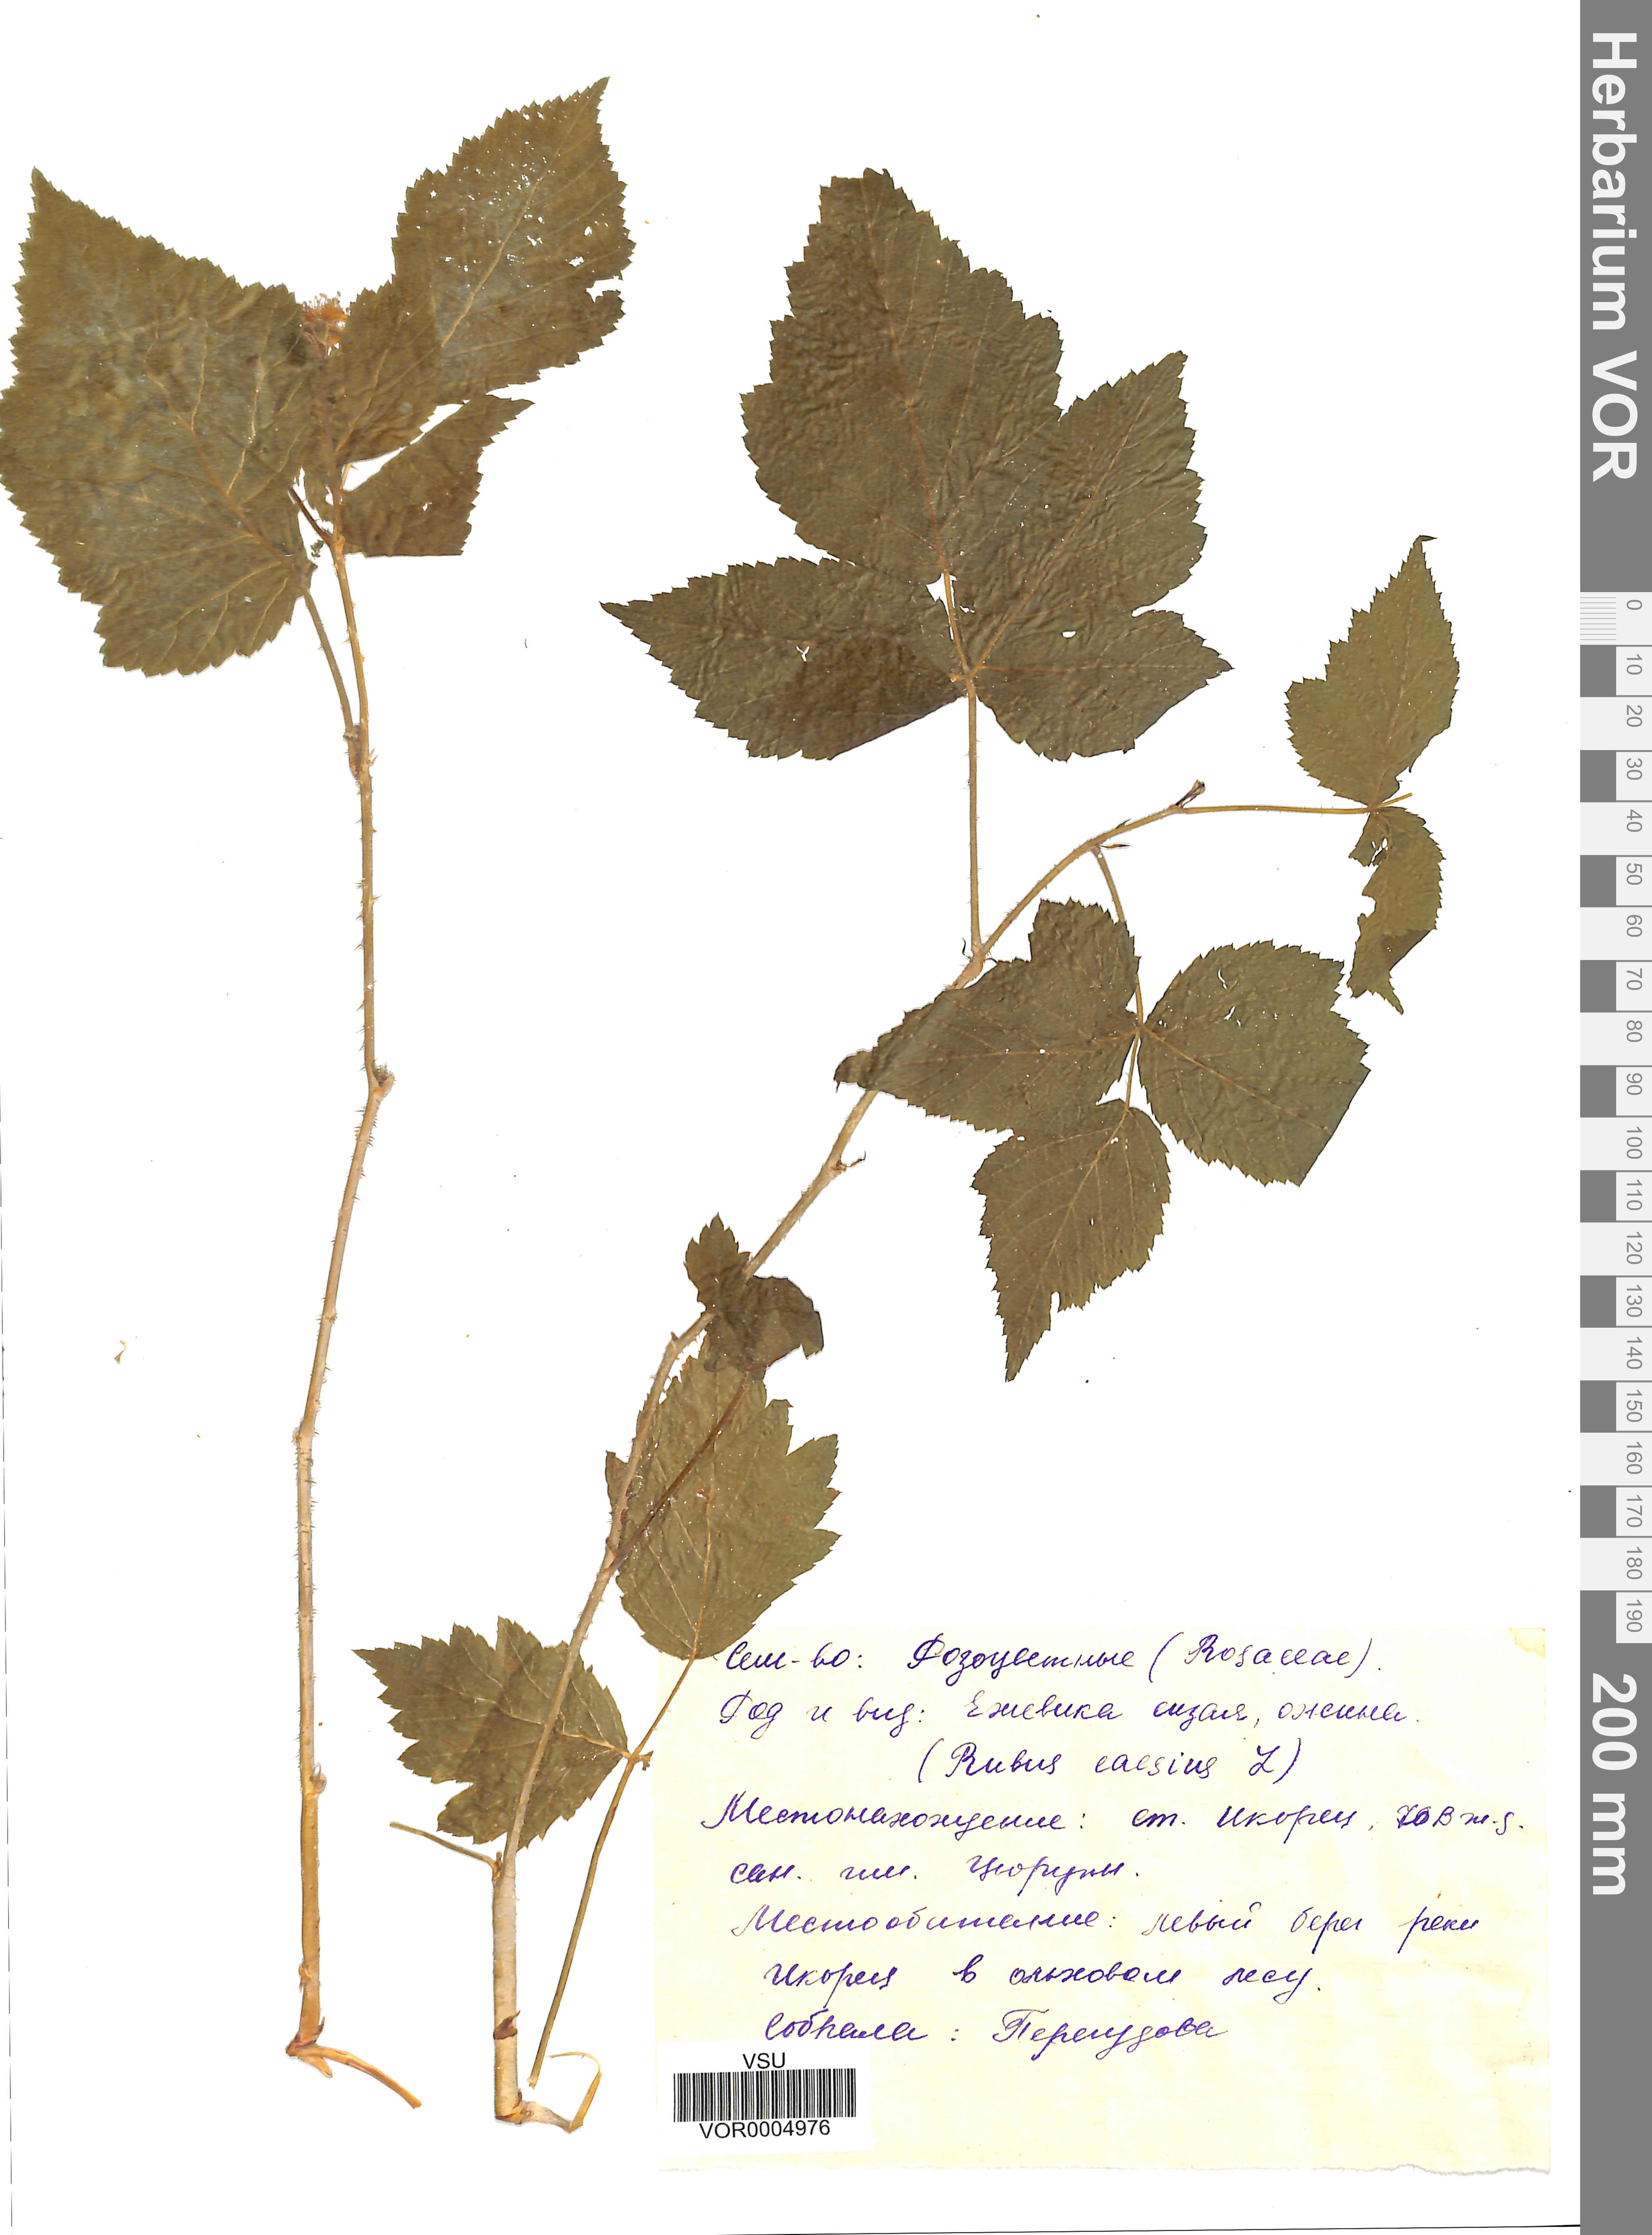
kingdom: Plantae
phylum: Tracheophyta
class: Magnoliopsida
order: Rosales
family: Rosaceae
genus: Rubus
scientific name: Rubus caesius
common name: Dewberry
